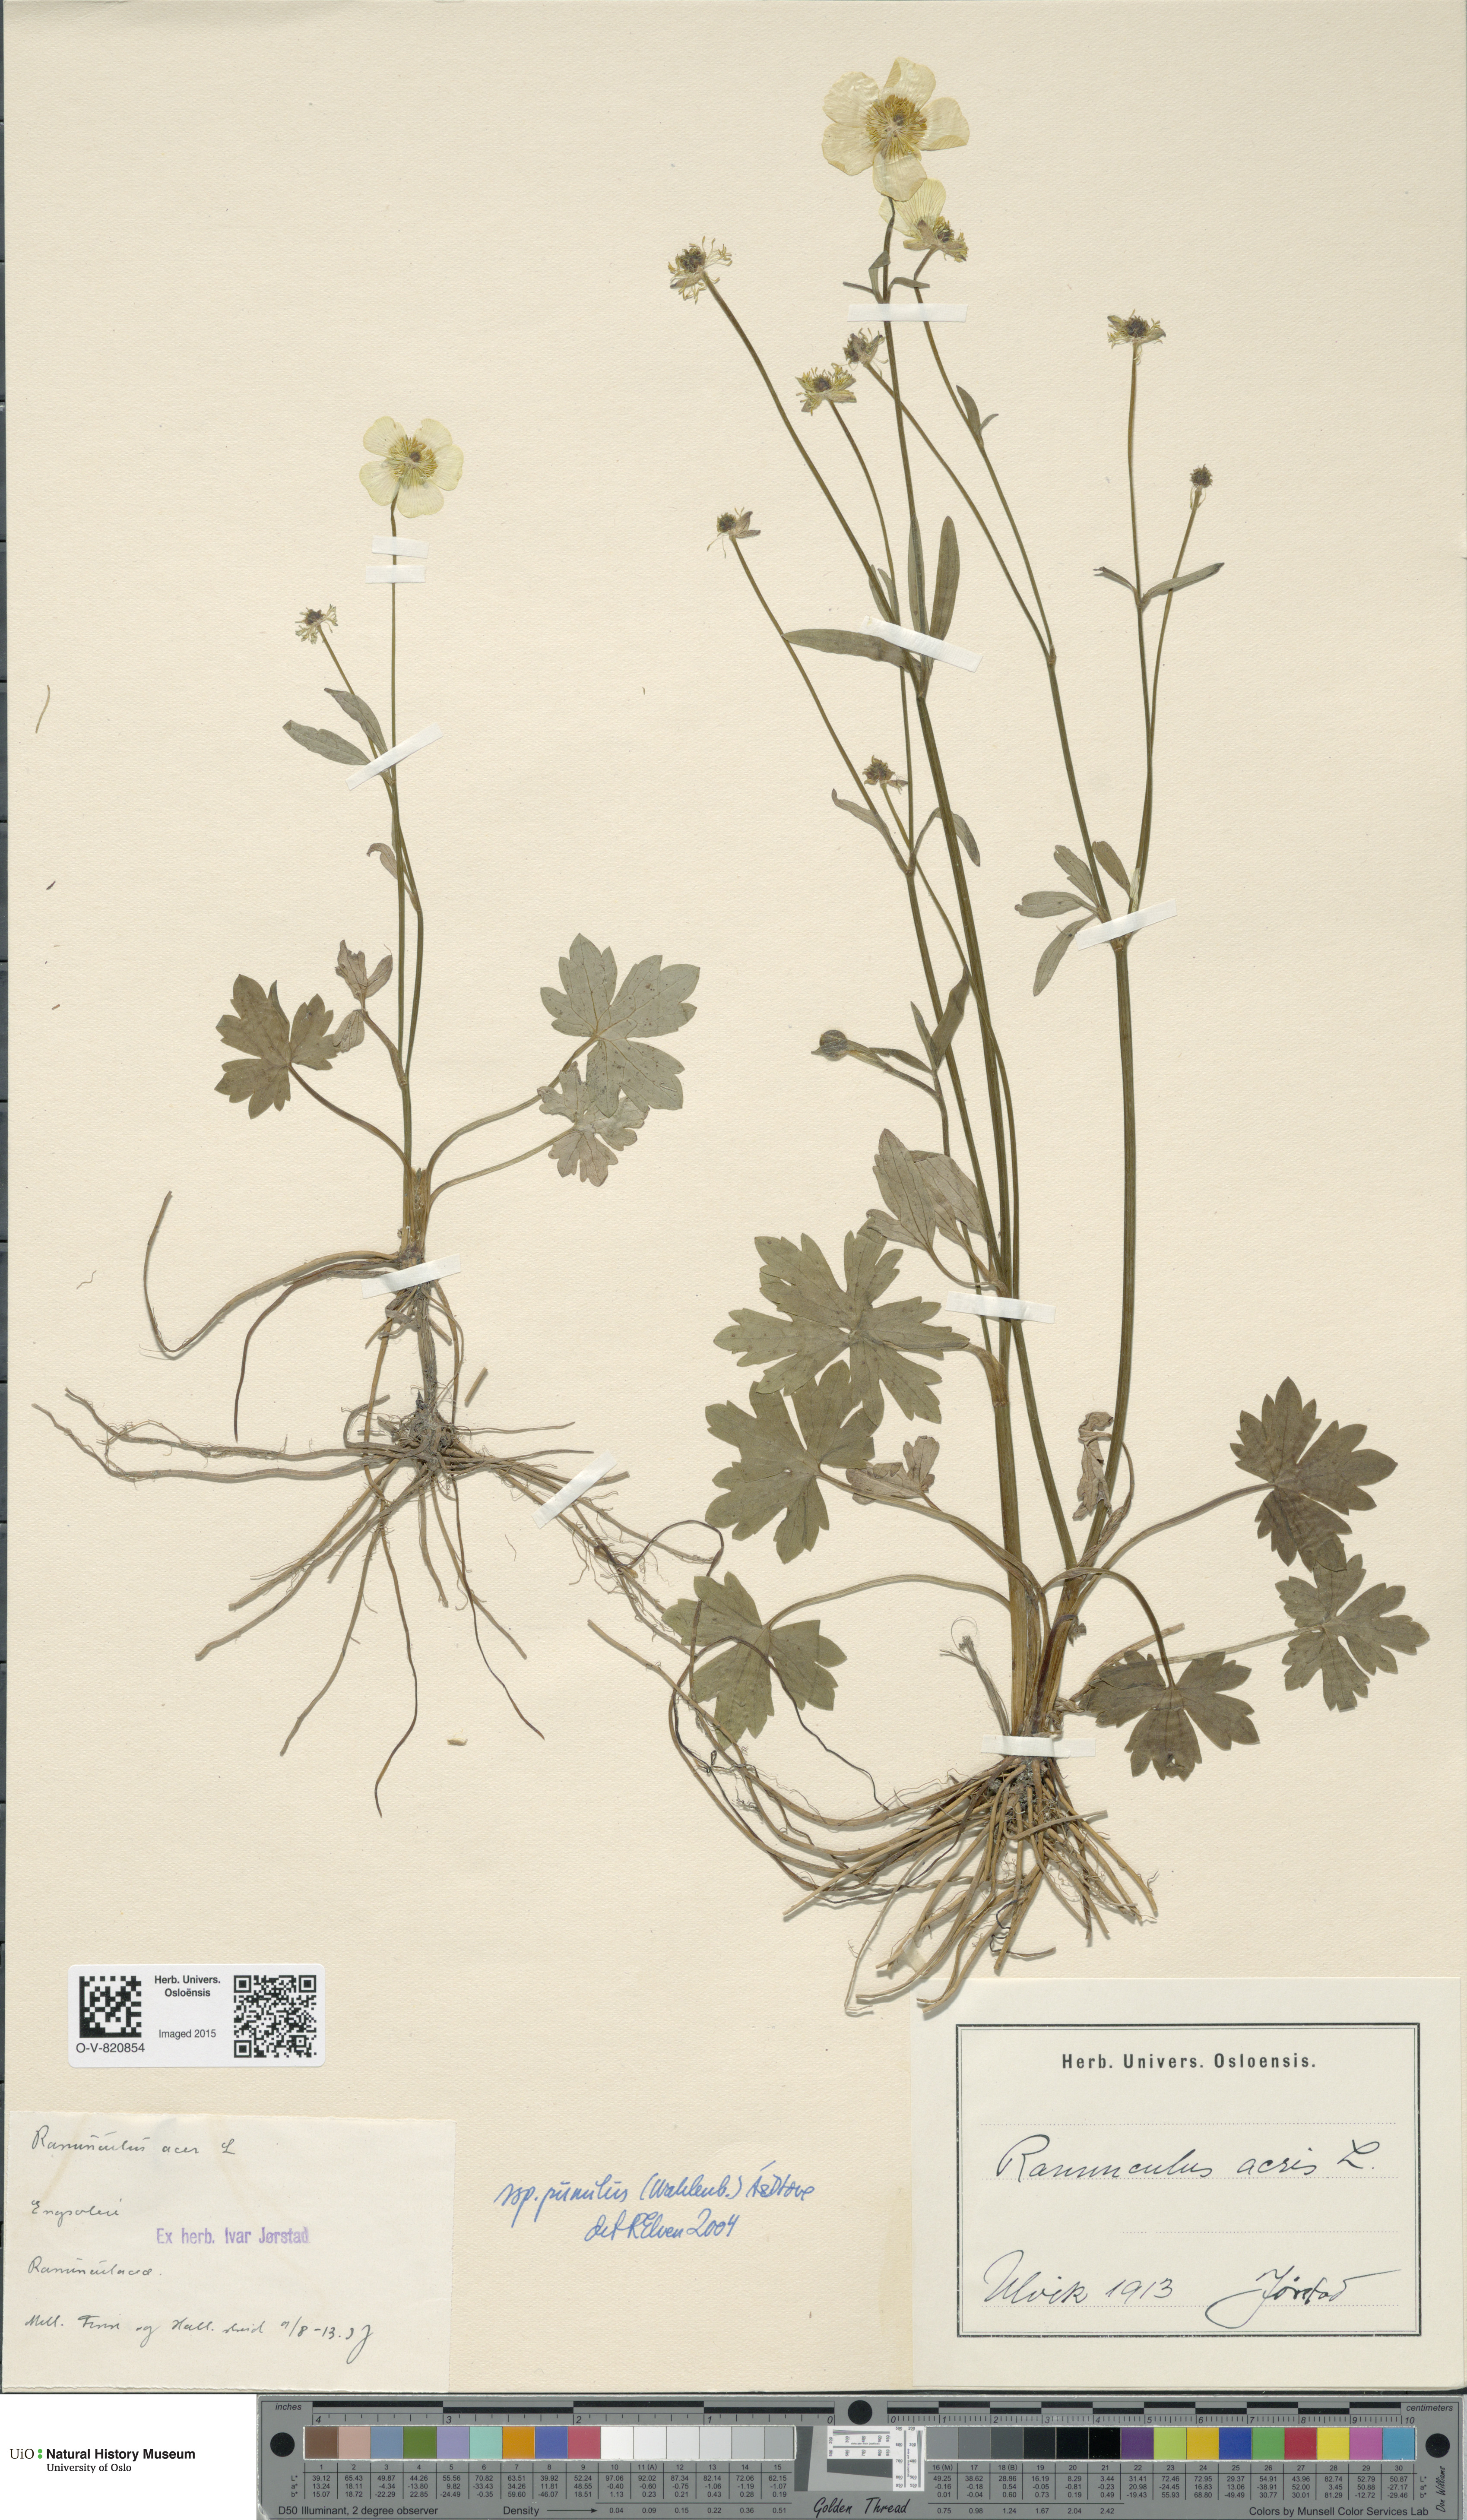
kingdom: Plantae
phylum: Tracheophyta
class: Magnoliopsida
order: Ranunculales
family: Ranunculaceae
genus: Ranunculus
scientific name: Ranunculus
